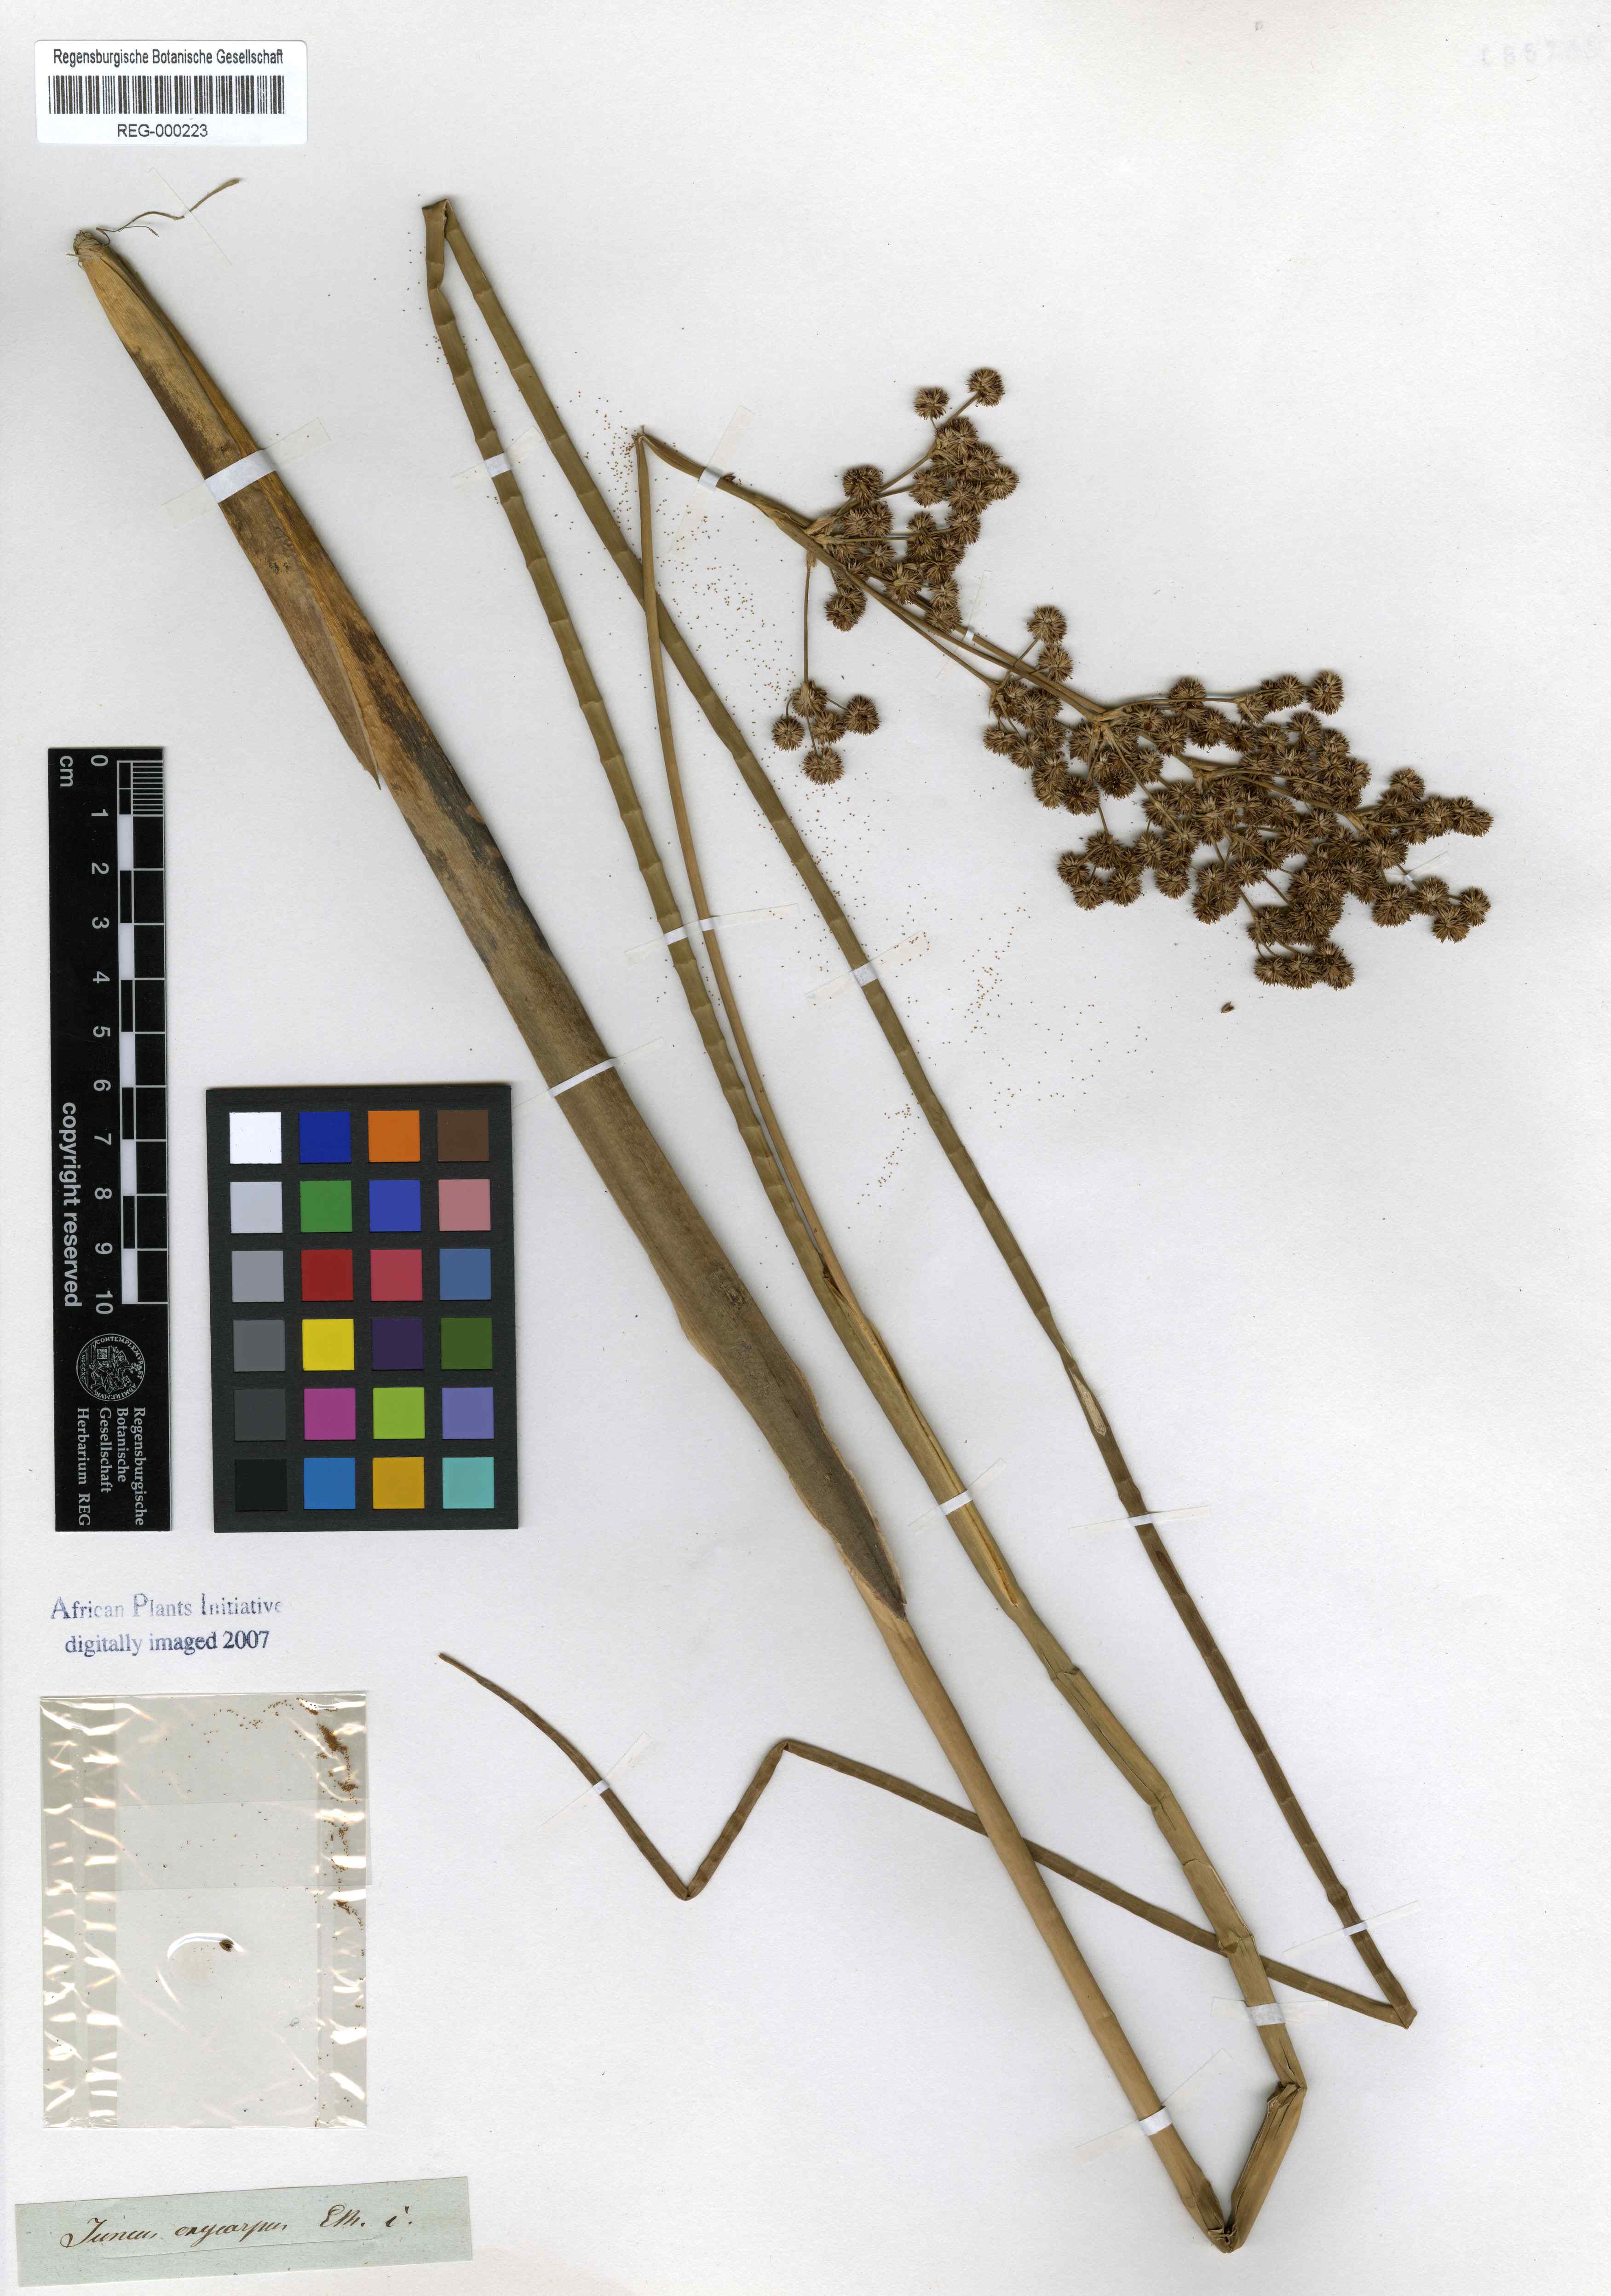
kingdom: Plantae
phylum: Tracheophyta
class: Liliopsida
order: Poales
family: Juncaceae
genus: Juncus
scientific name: Juncus oxycarpus
